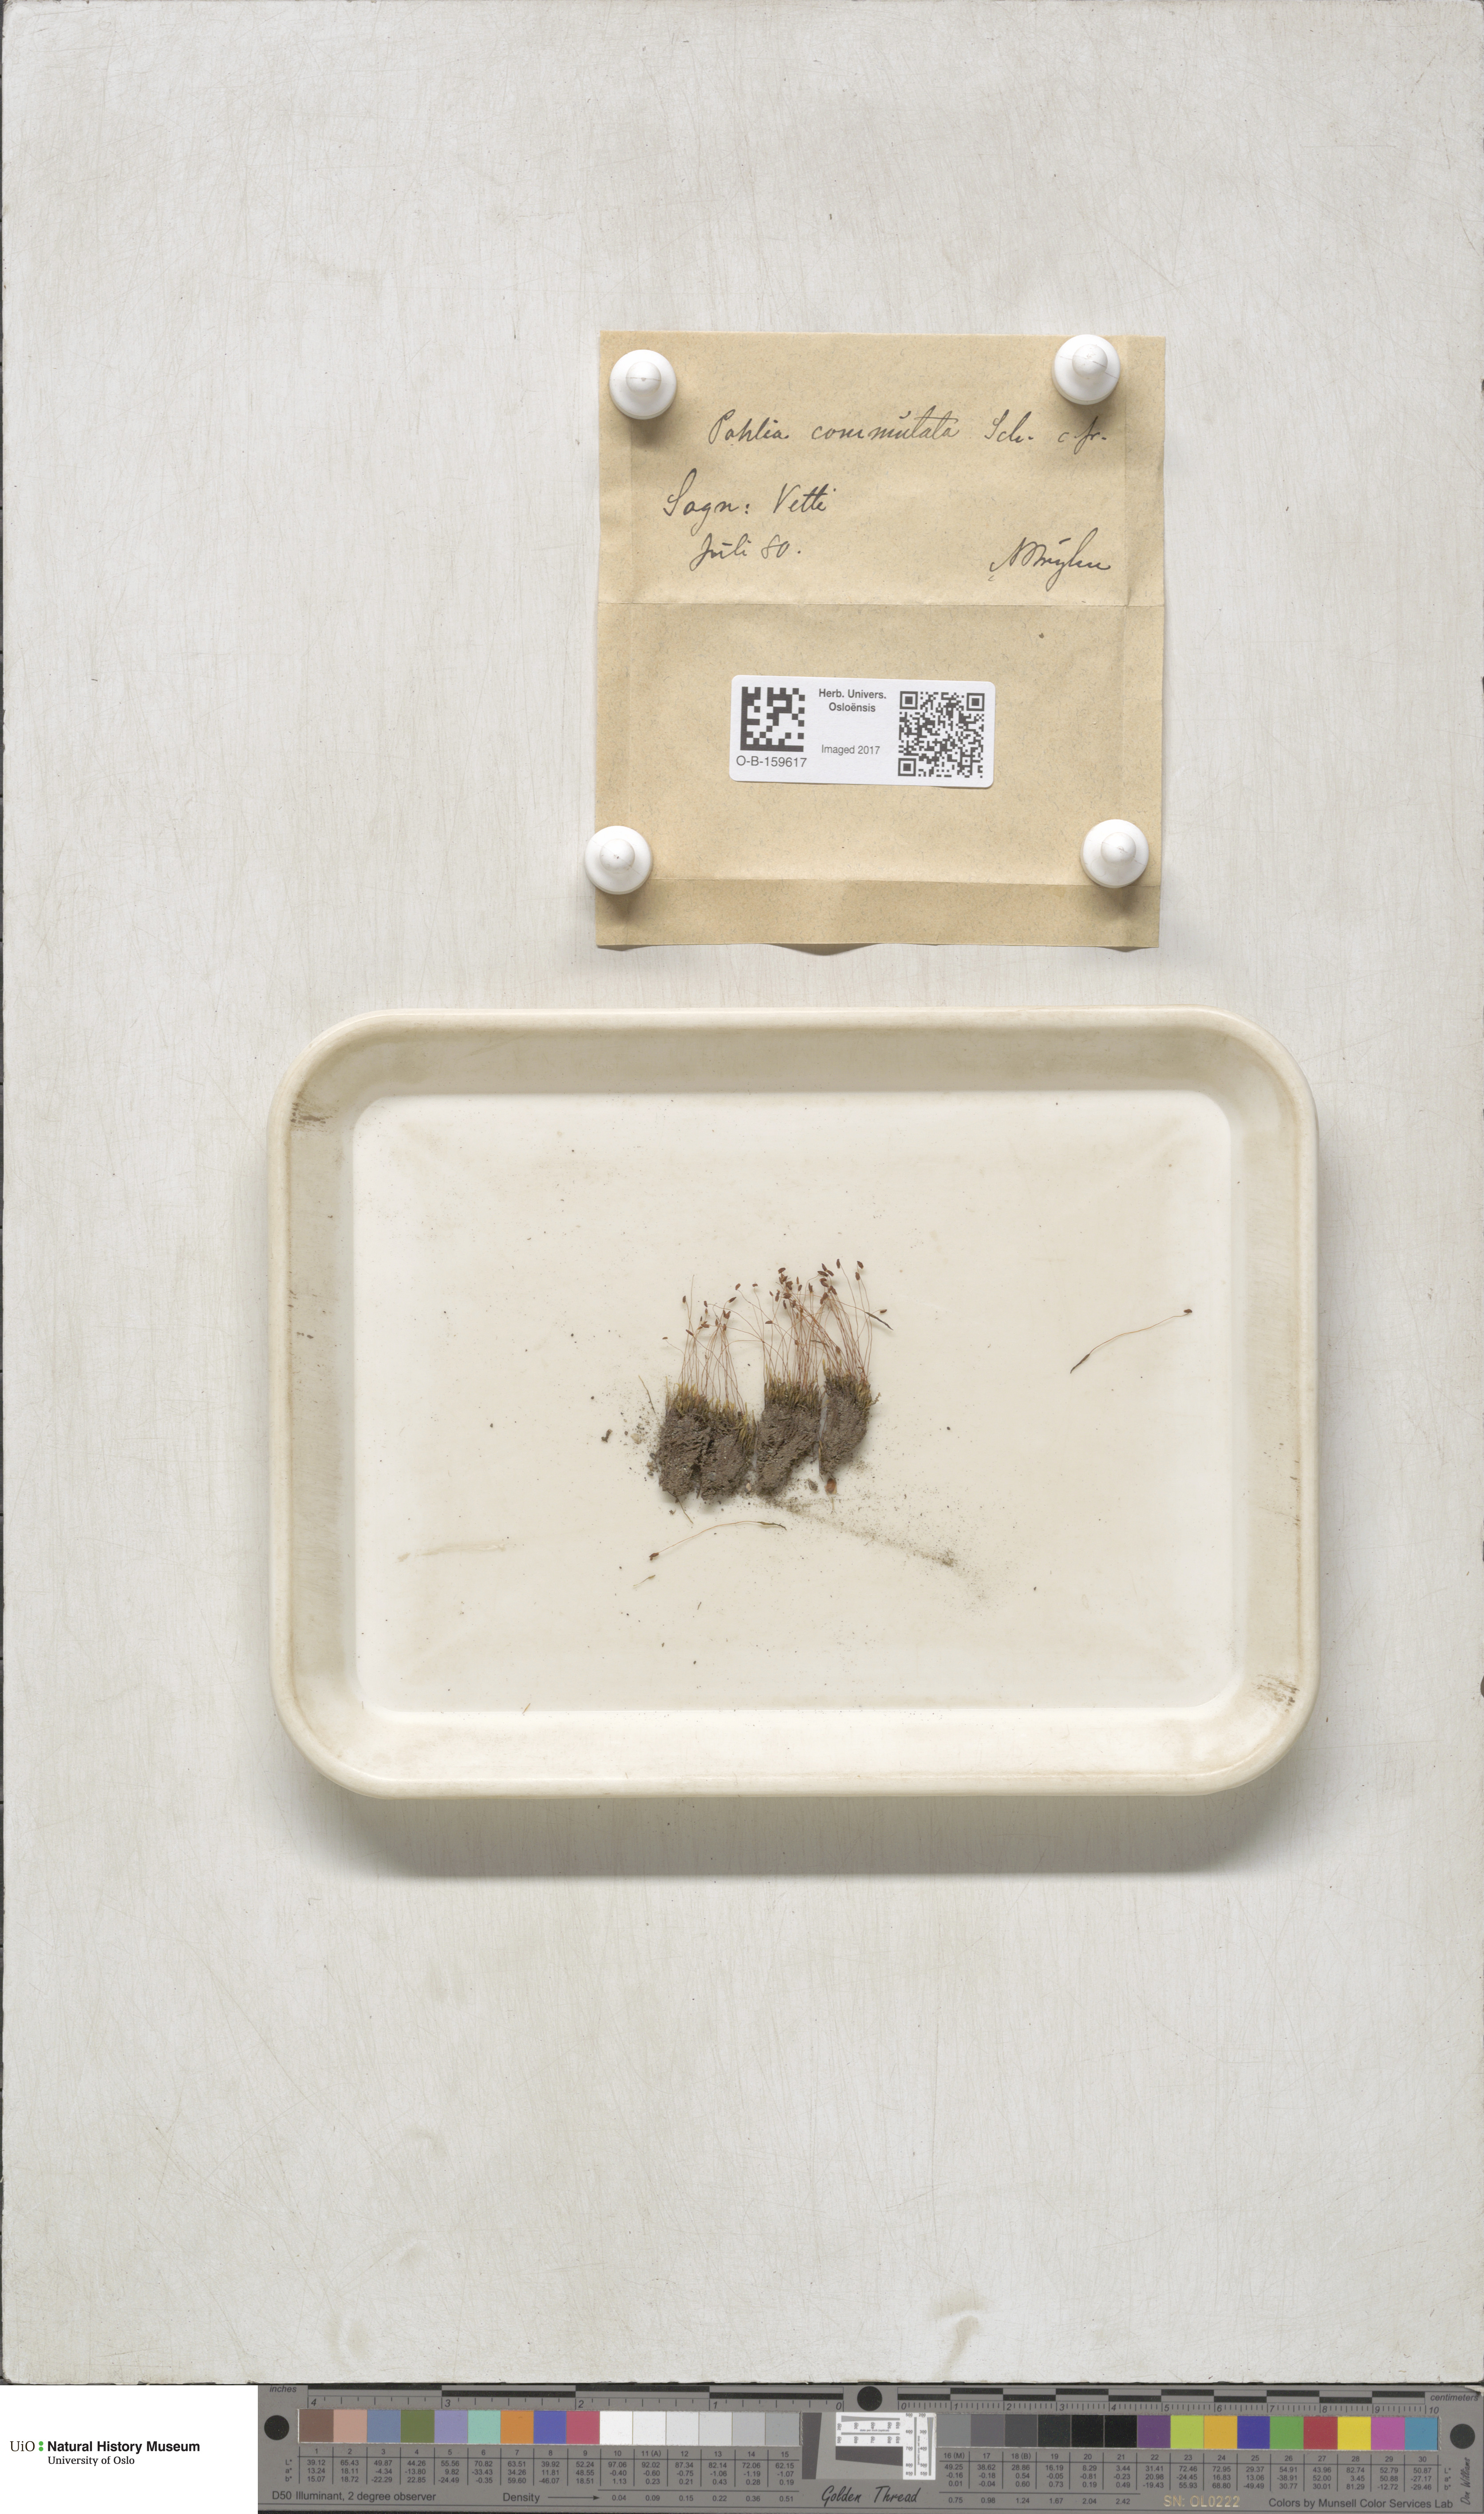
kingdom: Plantae
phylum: Bryophyta
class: Bryopsida
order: Bryales
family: Mniaceae
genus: Pohlia
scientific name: Pohlia drummondii
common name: Drummond's nodding moss
